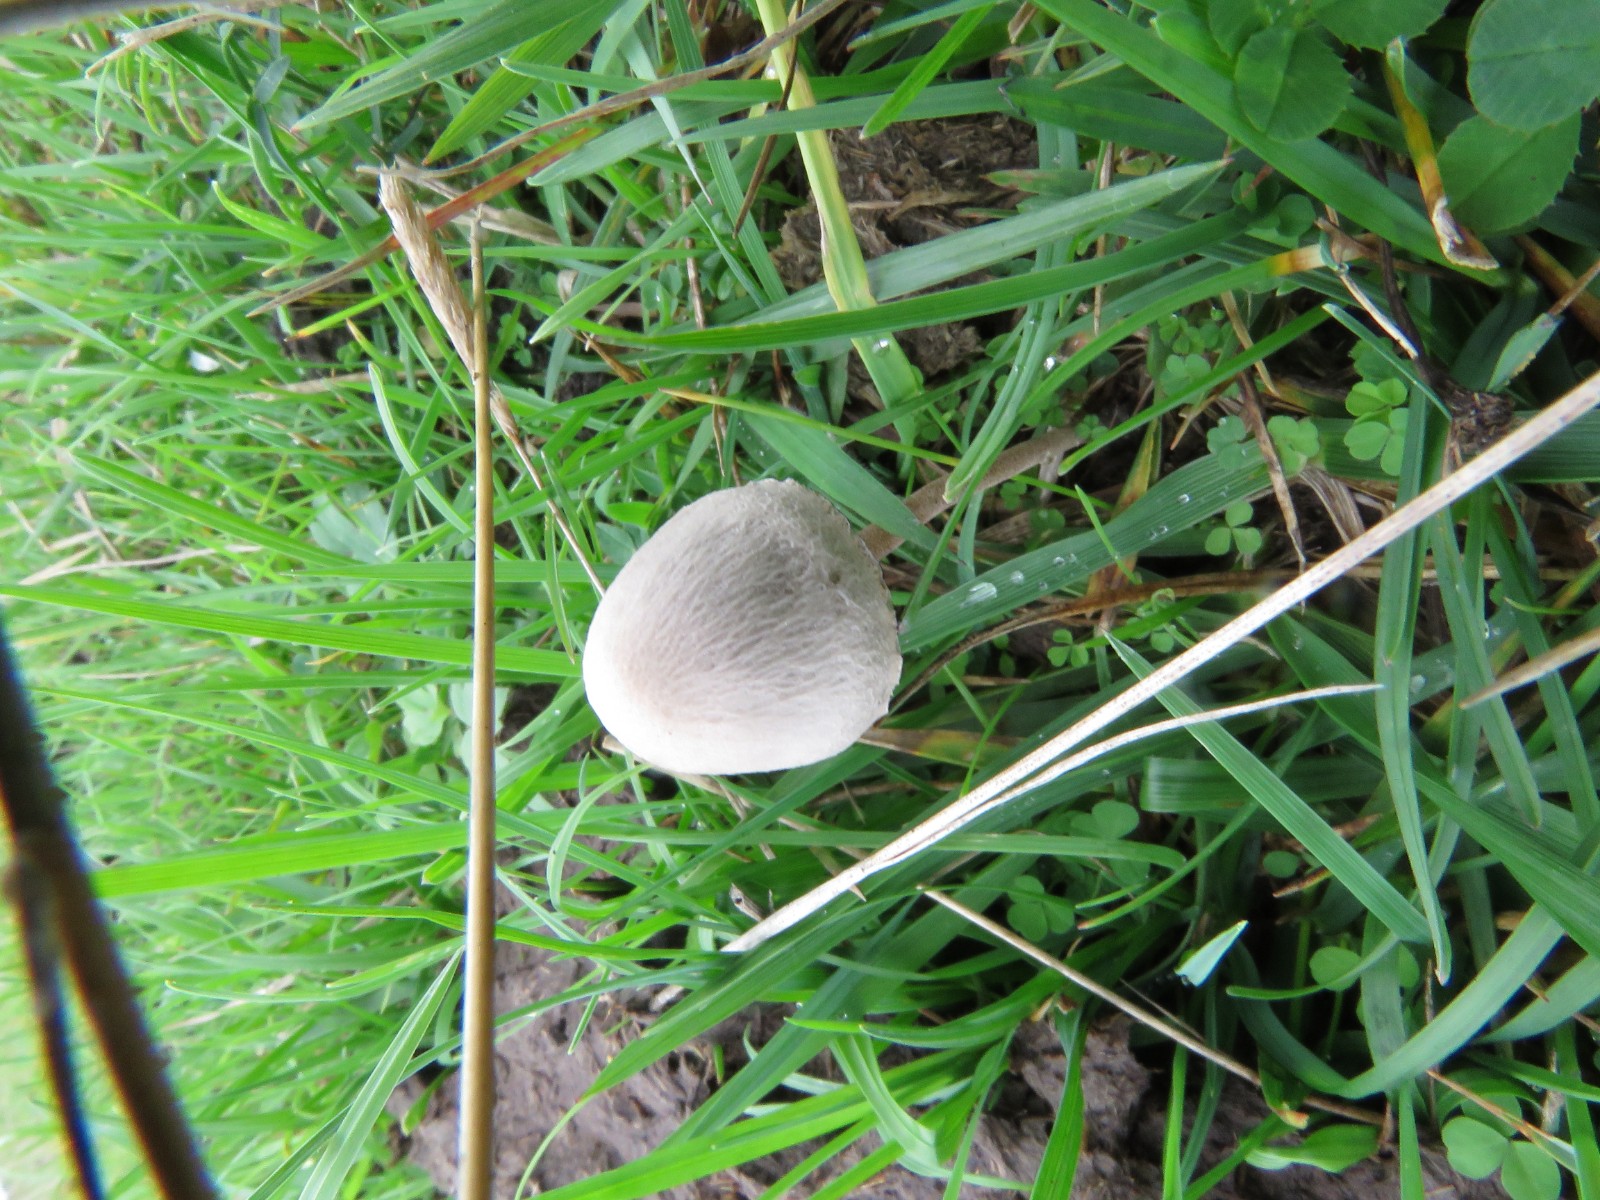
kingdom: Fungi
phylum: Basidiomycota
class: Agaricomycetes
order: Agaricales
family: Bolbitiaceae
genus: Panaeolus
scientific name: Panaeolus papilionaceus
